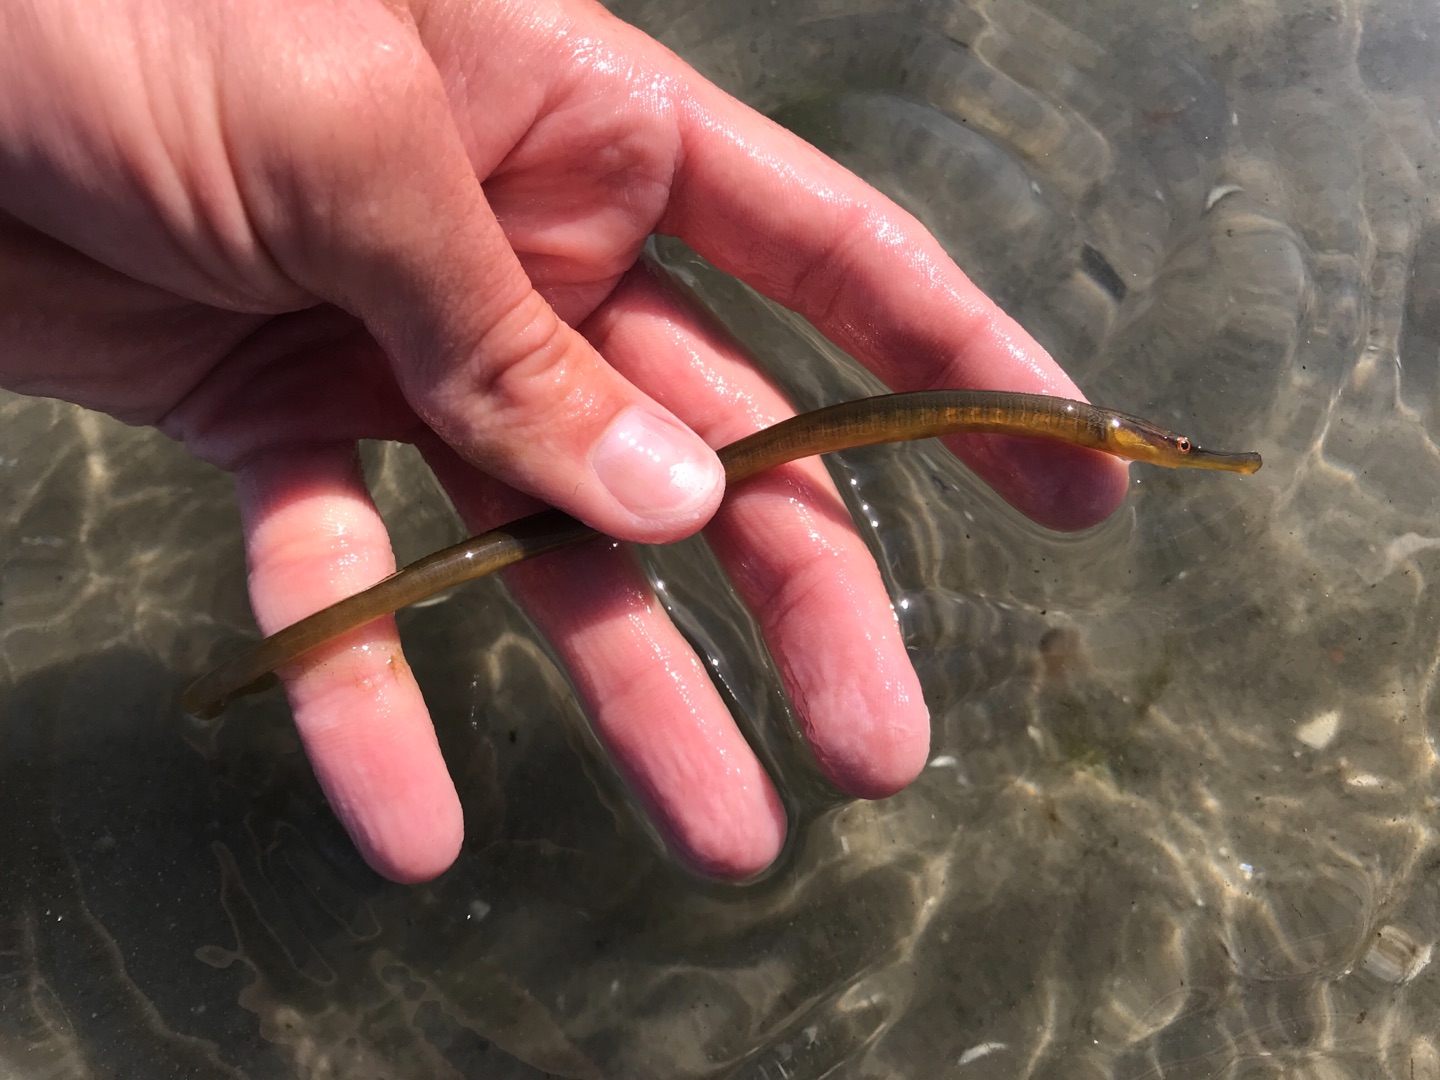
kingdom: Animalia
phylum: Chordata
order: Syngnathiformes
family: Syngnathidae
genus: Entelurus
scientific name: Entelurus aequoreus
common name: Snippe
